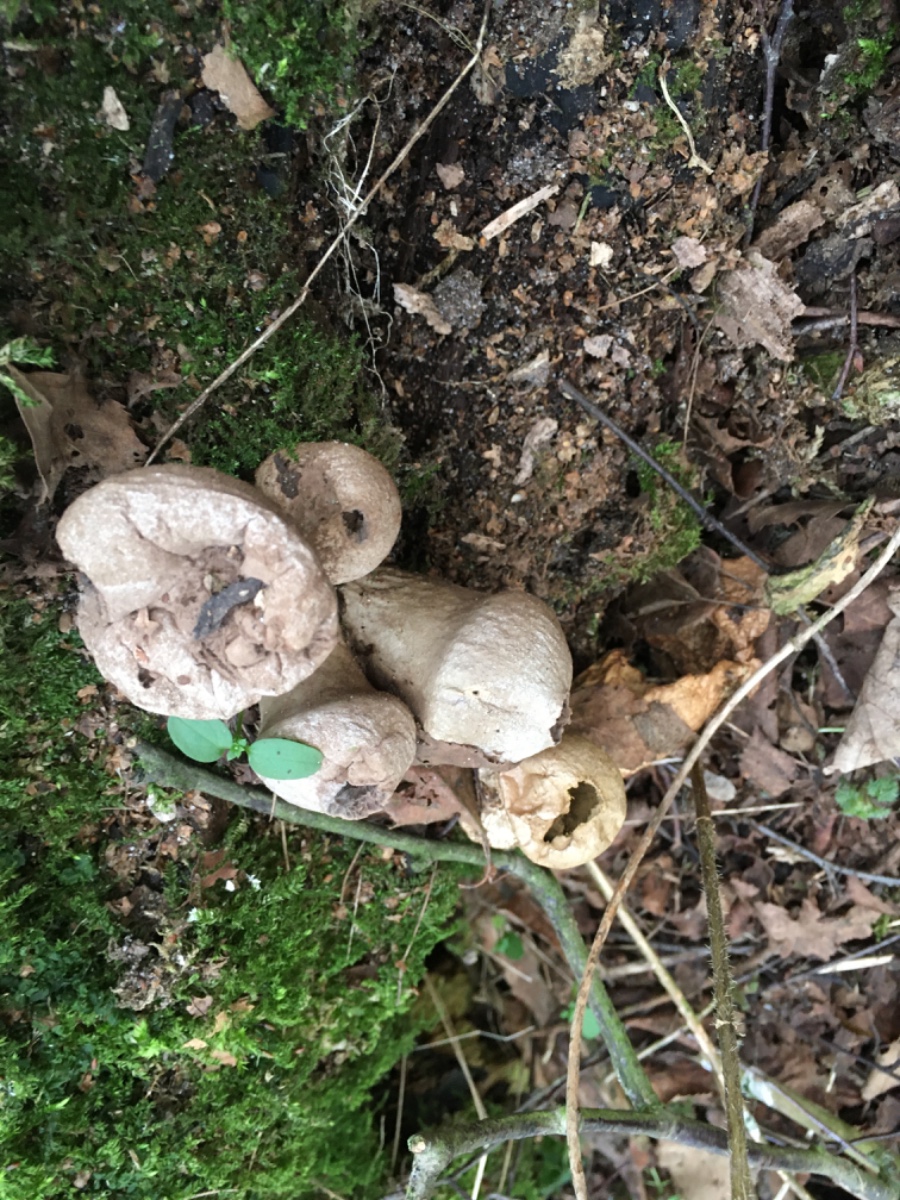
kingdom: Fungi
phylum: Basidiomycota
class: Agaricomycetes
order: Agaricales
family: Lycoperdaceae
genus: Apioperdon
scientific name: Apioperdon pyriforme
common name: pære-støvbold
